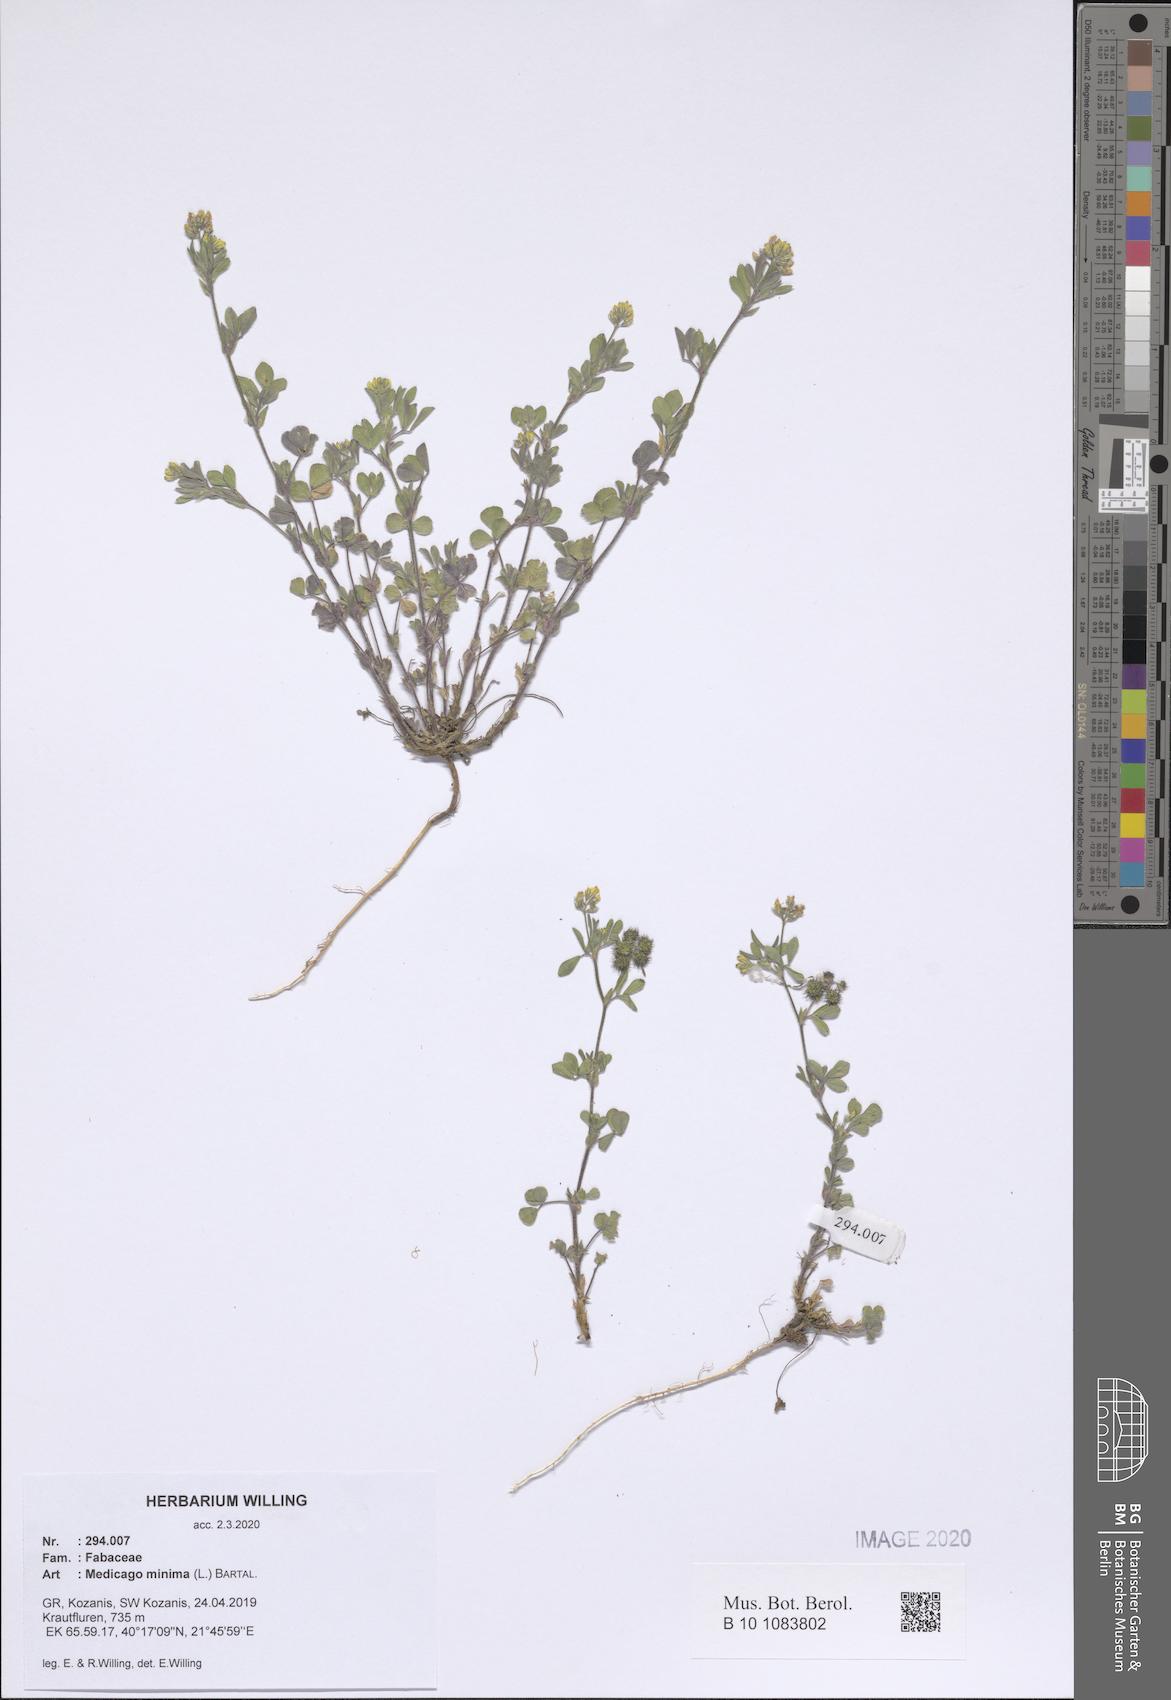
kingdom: Plantae
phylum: Tracheophyta
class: Magnoliopsida
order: Fabales
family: Fabaceae
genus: Medicago
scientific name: Medicago minima
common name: Little bur-clover
